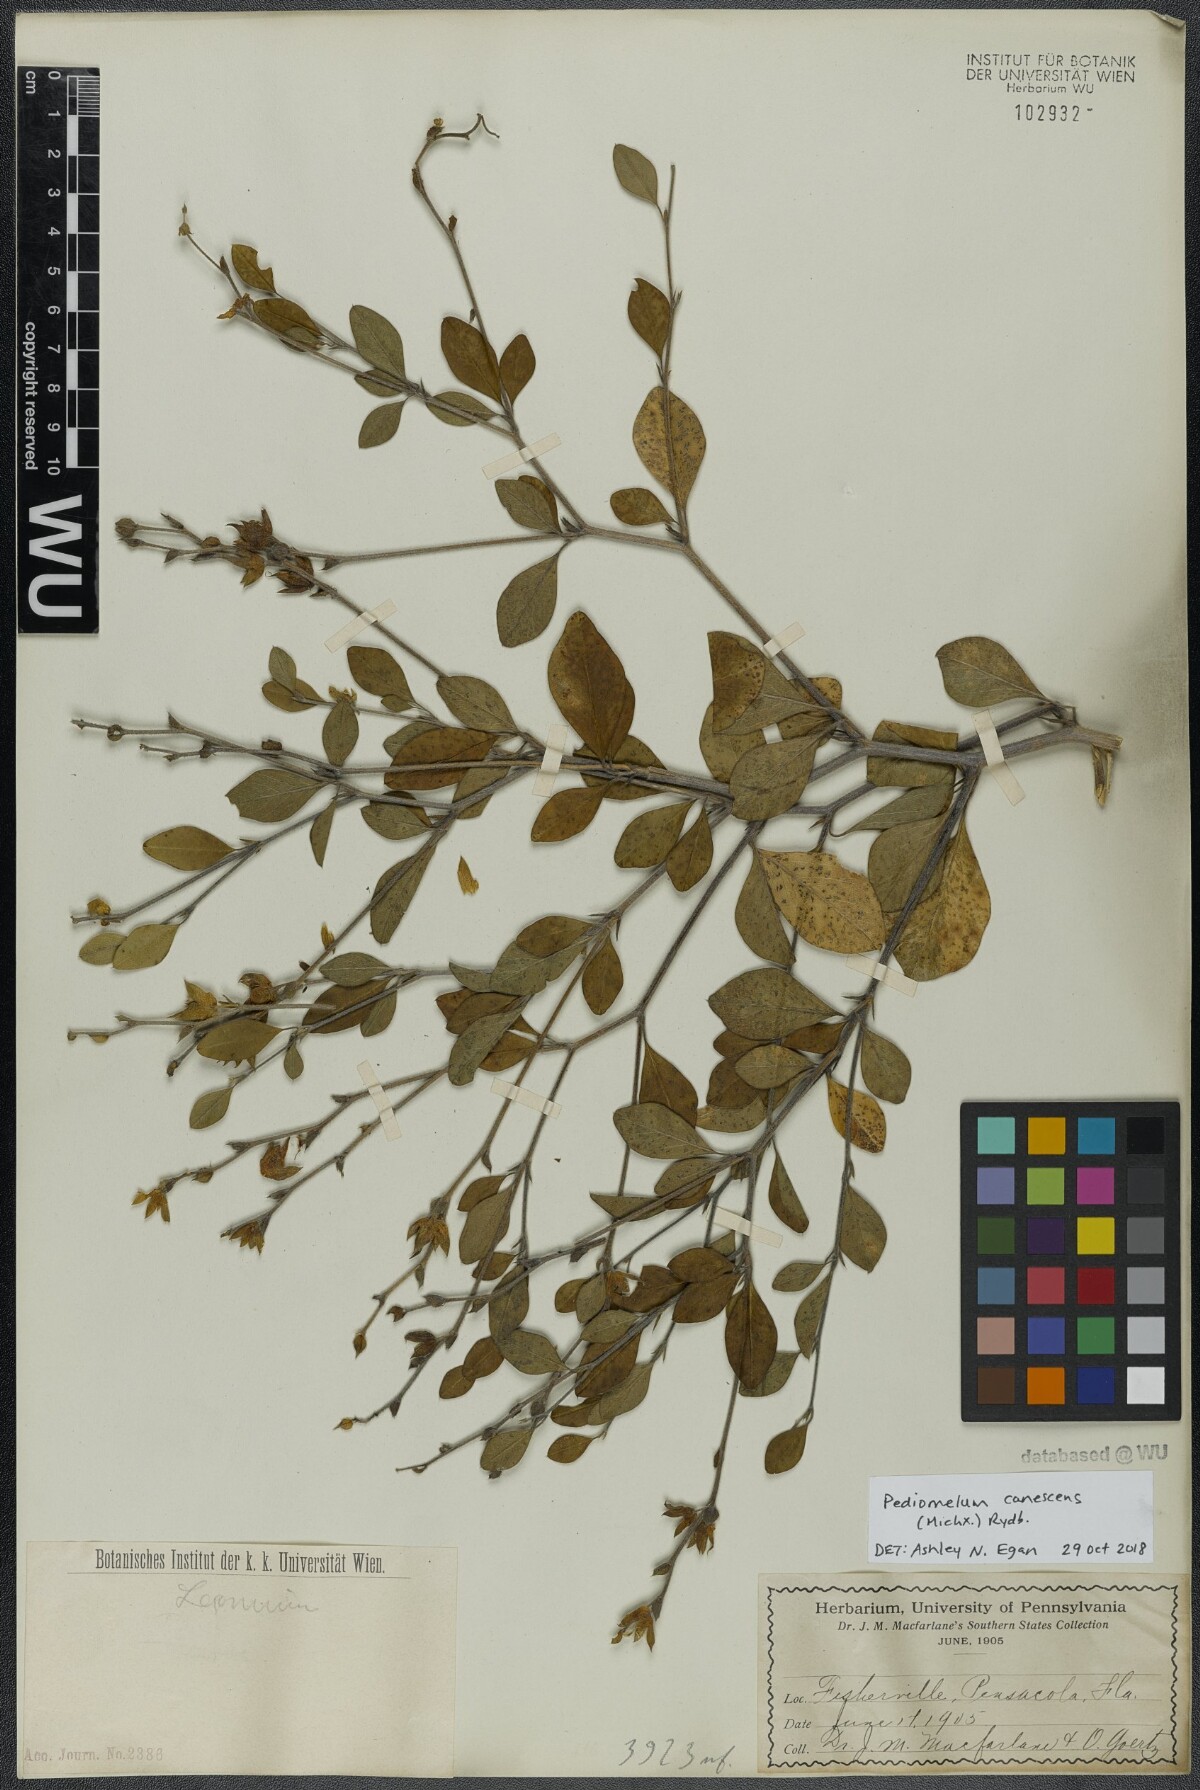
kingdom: Plantae
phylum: Tracheophyta
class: Magnoliopsida
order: Fabales
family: Fabaceae
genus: Pediomelum
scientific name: Pediomelum canescens
